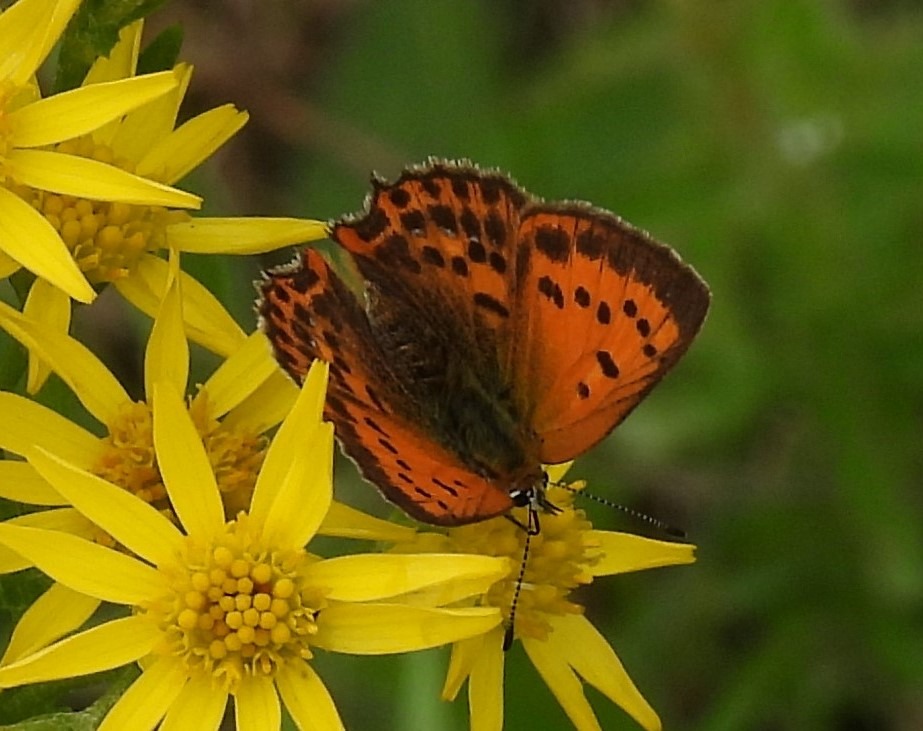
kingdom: Animalia
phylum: Arthropoda
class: Insecta
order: Lepidoptera
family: Lycaenidae
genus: Lycaena
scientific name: Lycaena virgaureae
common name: Dukatsommerfugl
